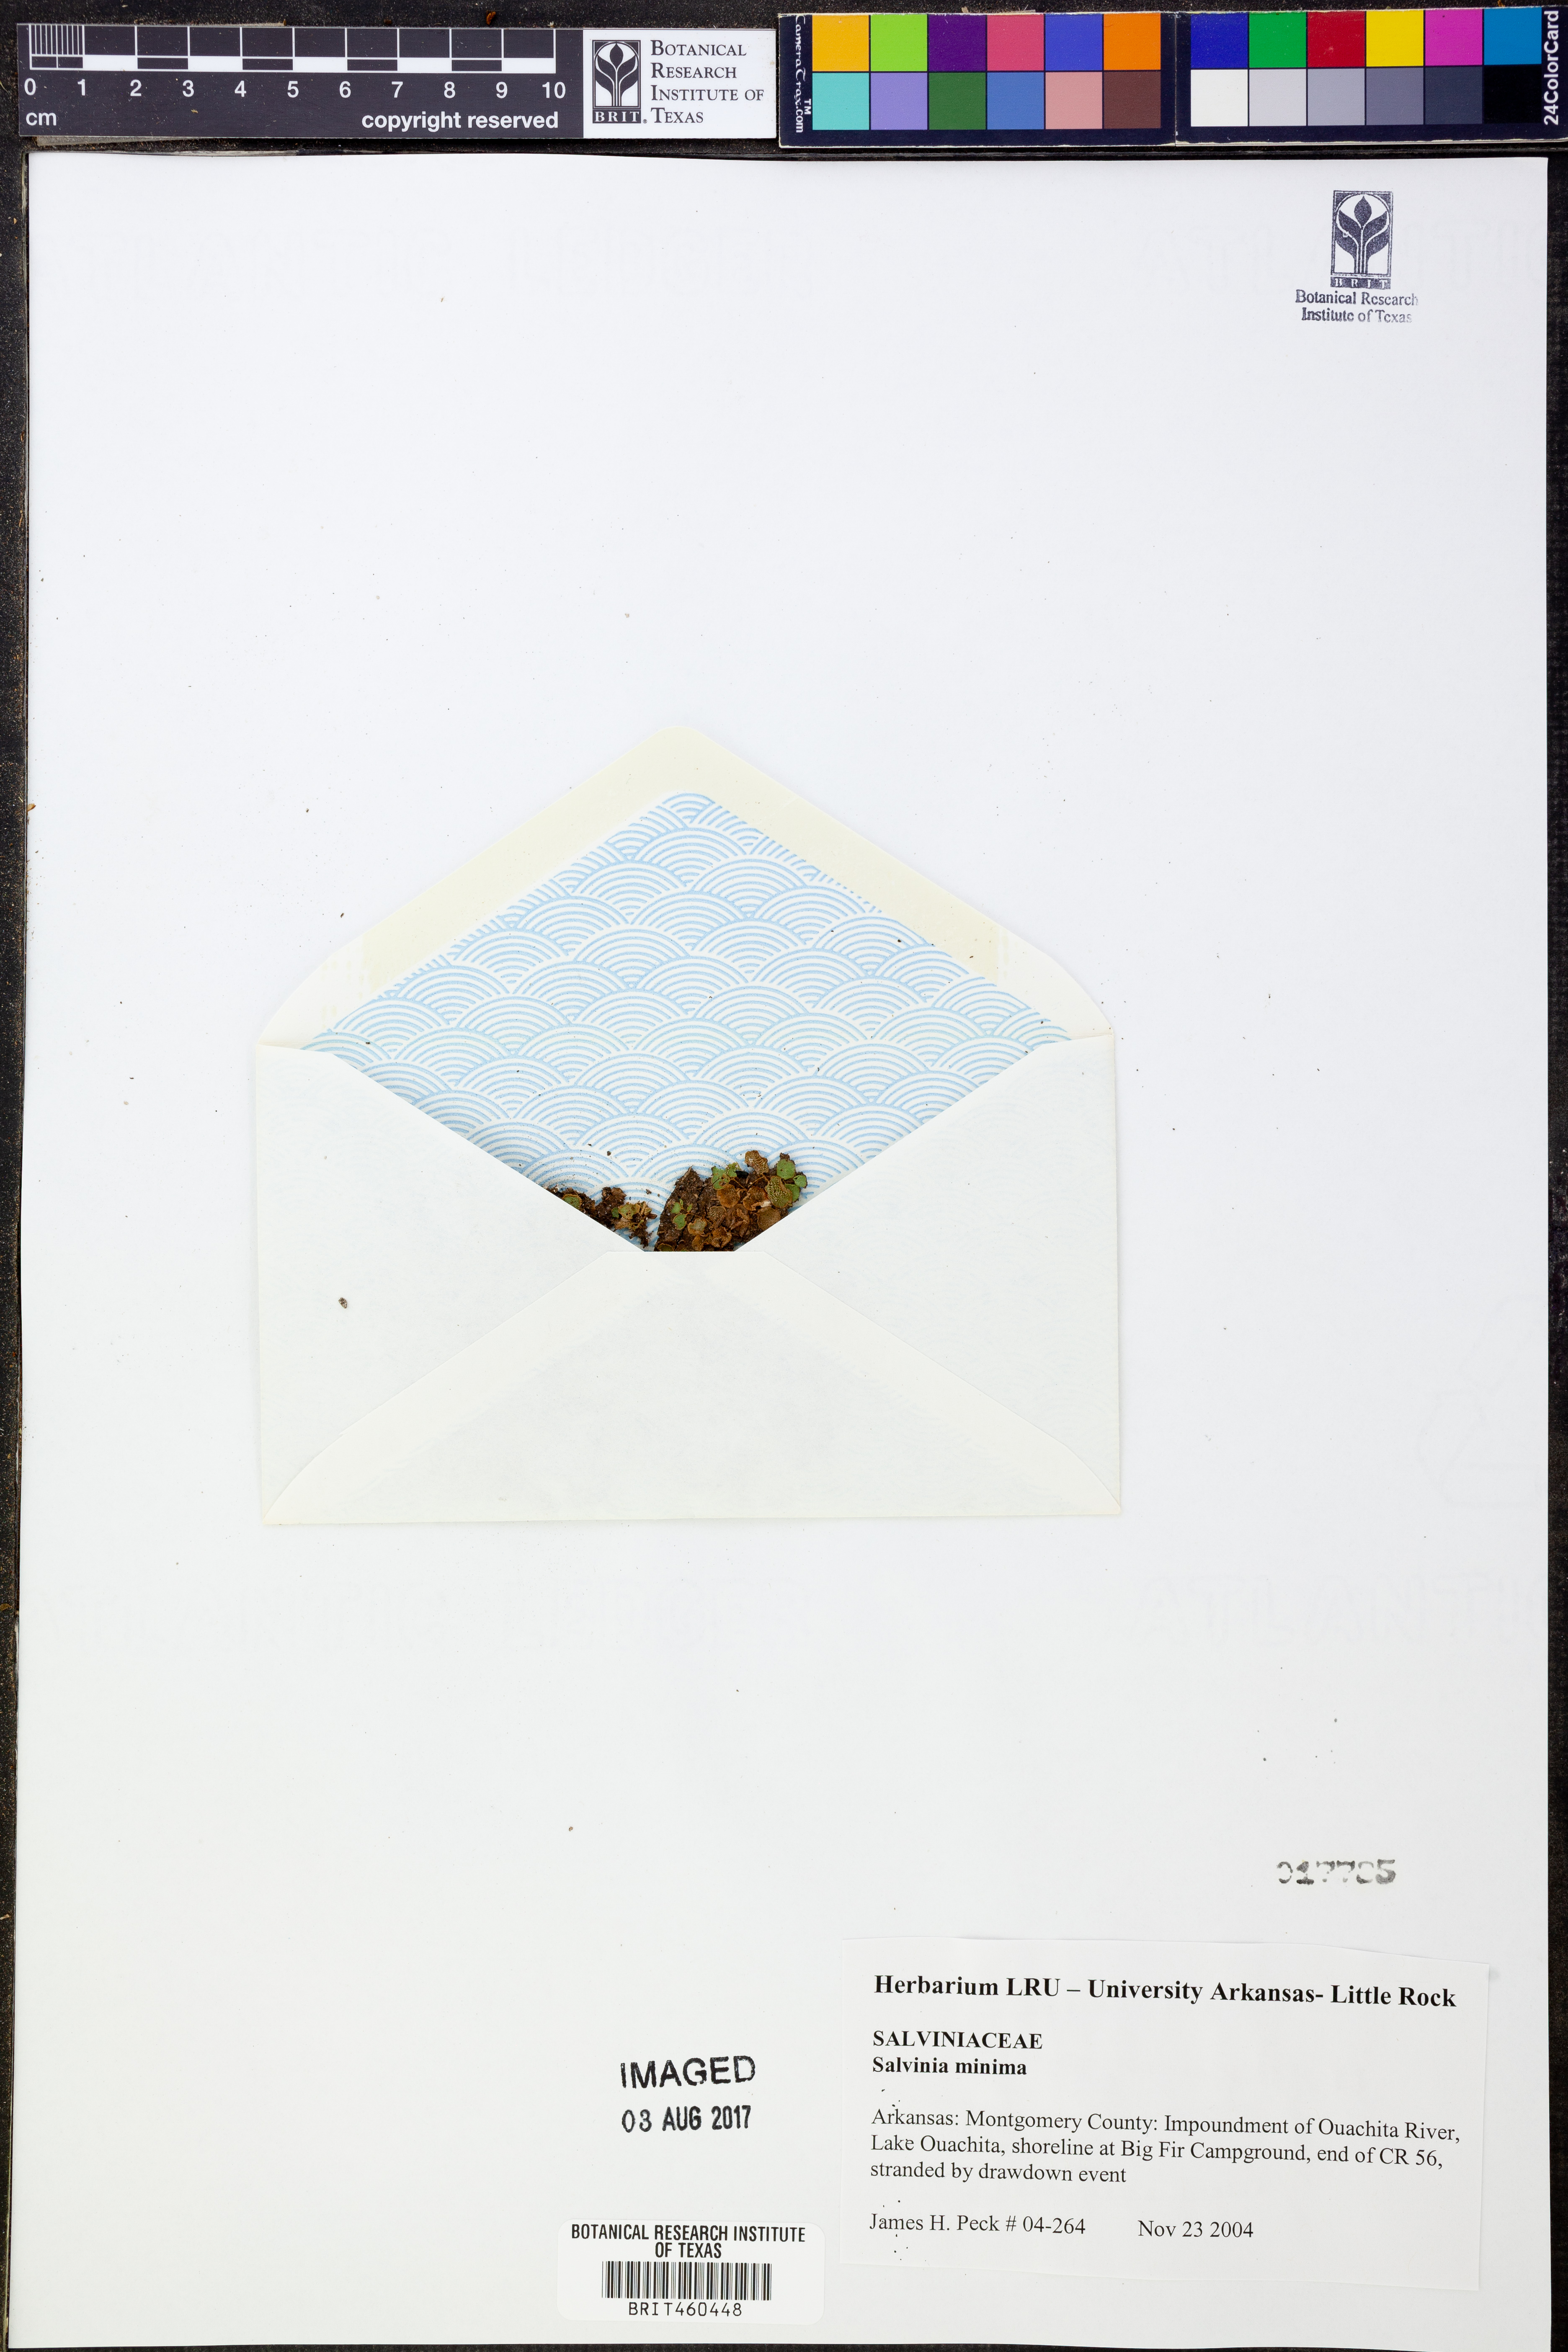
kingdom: Plantae
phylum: Tracheophyta
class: Polypodiopsida
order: Salviniales
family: Salviniaceae
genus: Salvinia
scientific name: Salvinia minima
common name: Water spangles
